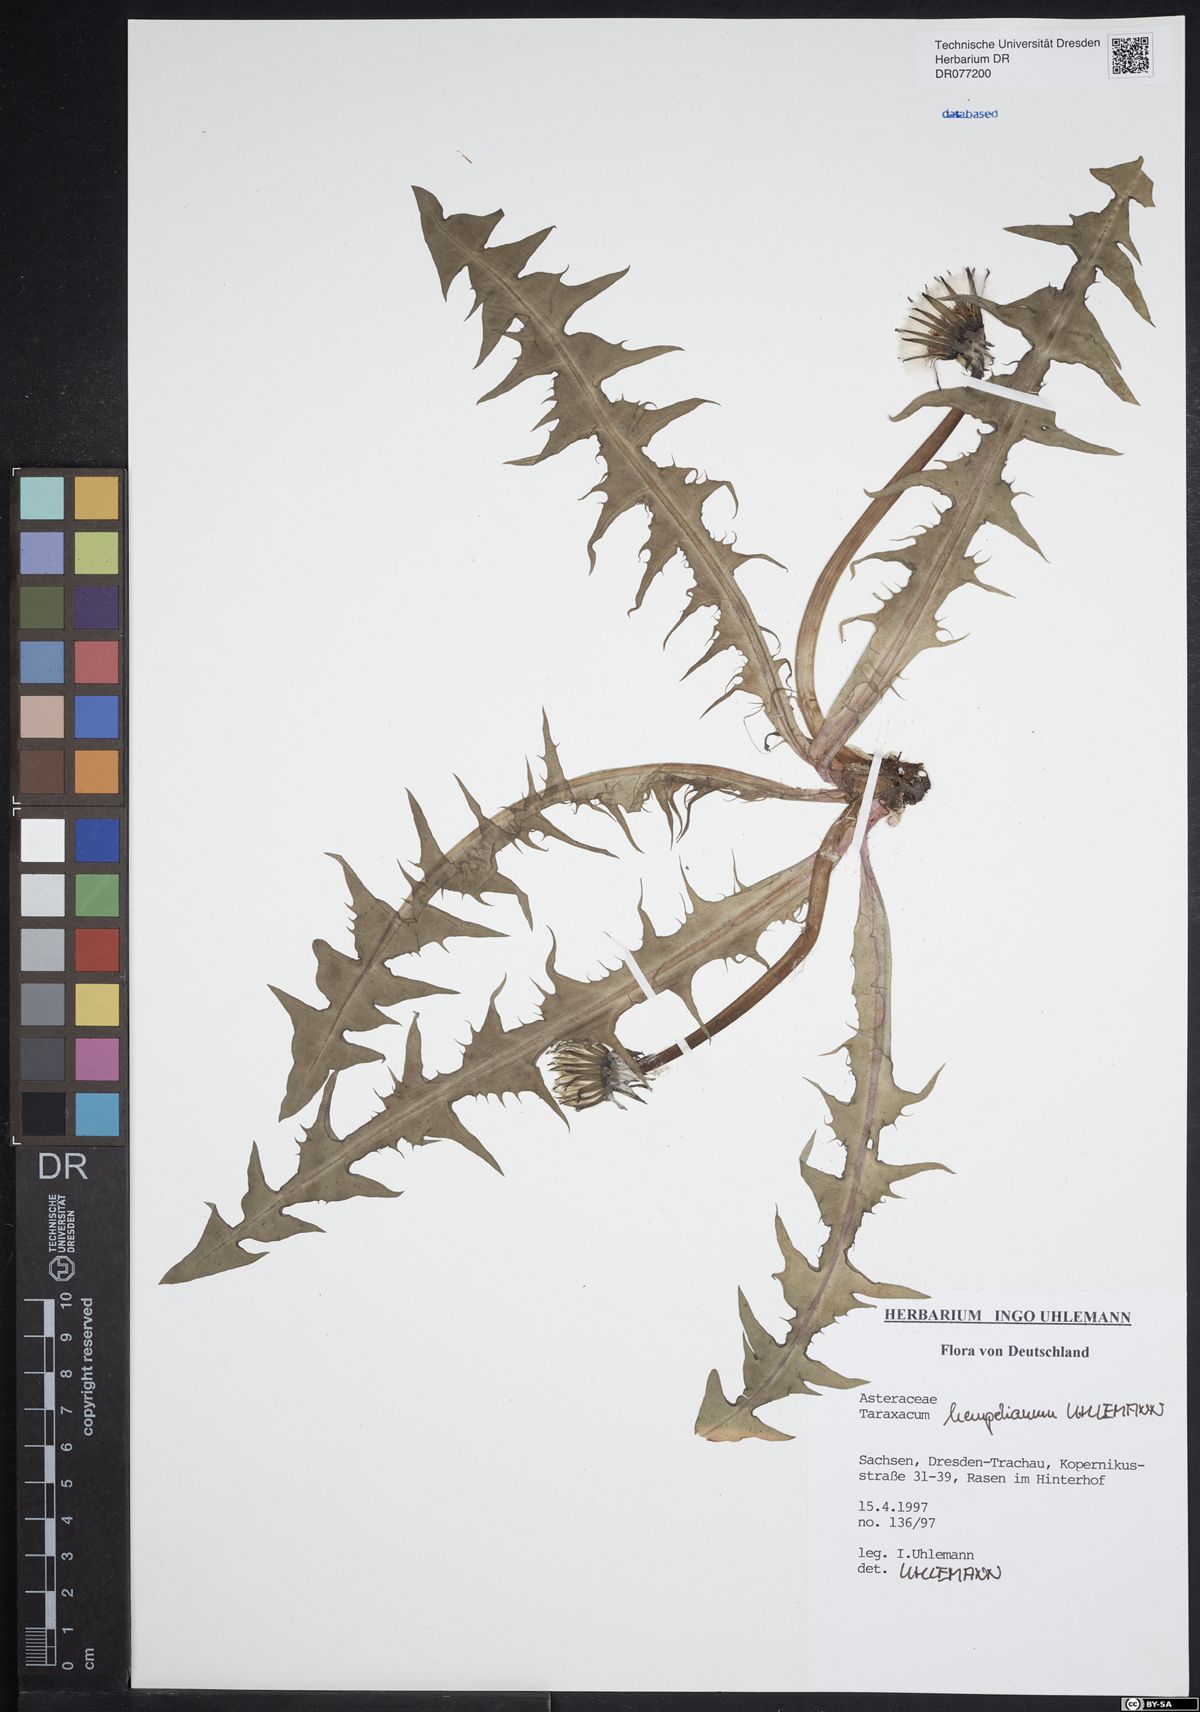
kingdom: Plantae
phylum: Tracheophyta
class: Magnoliopsida
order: Asterales
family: Asteraceae
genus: Taraxacum
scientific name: Taraxacum hempelianum
